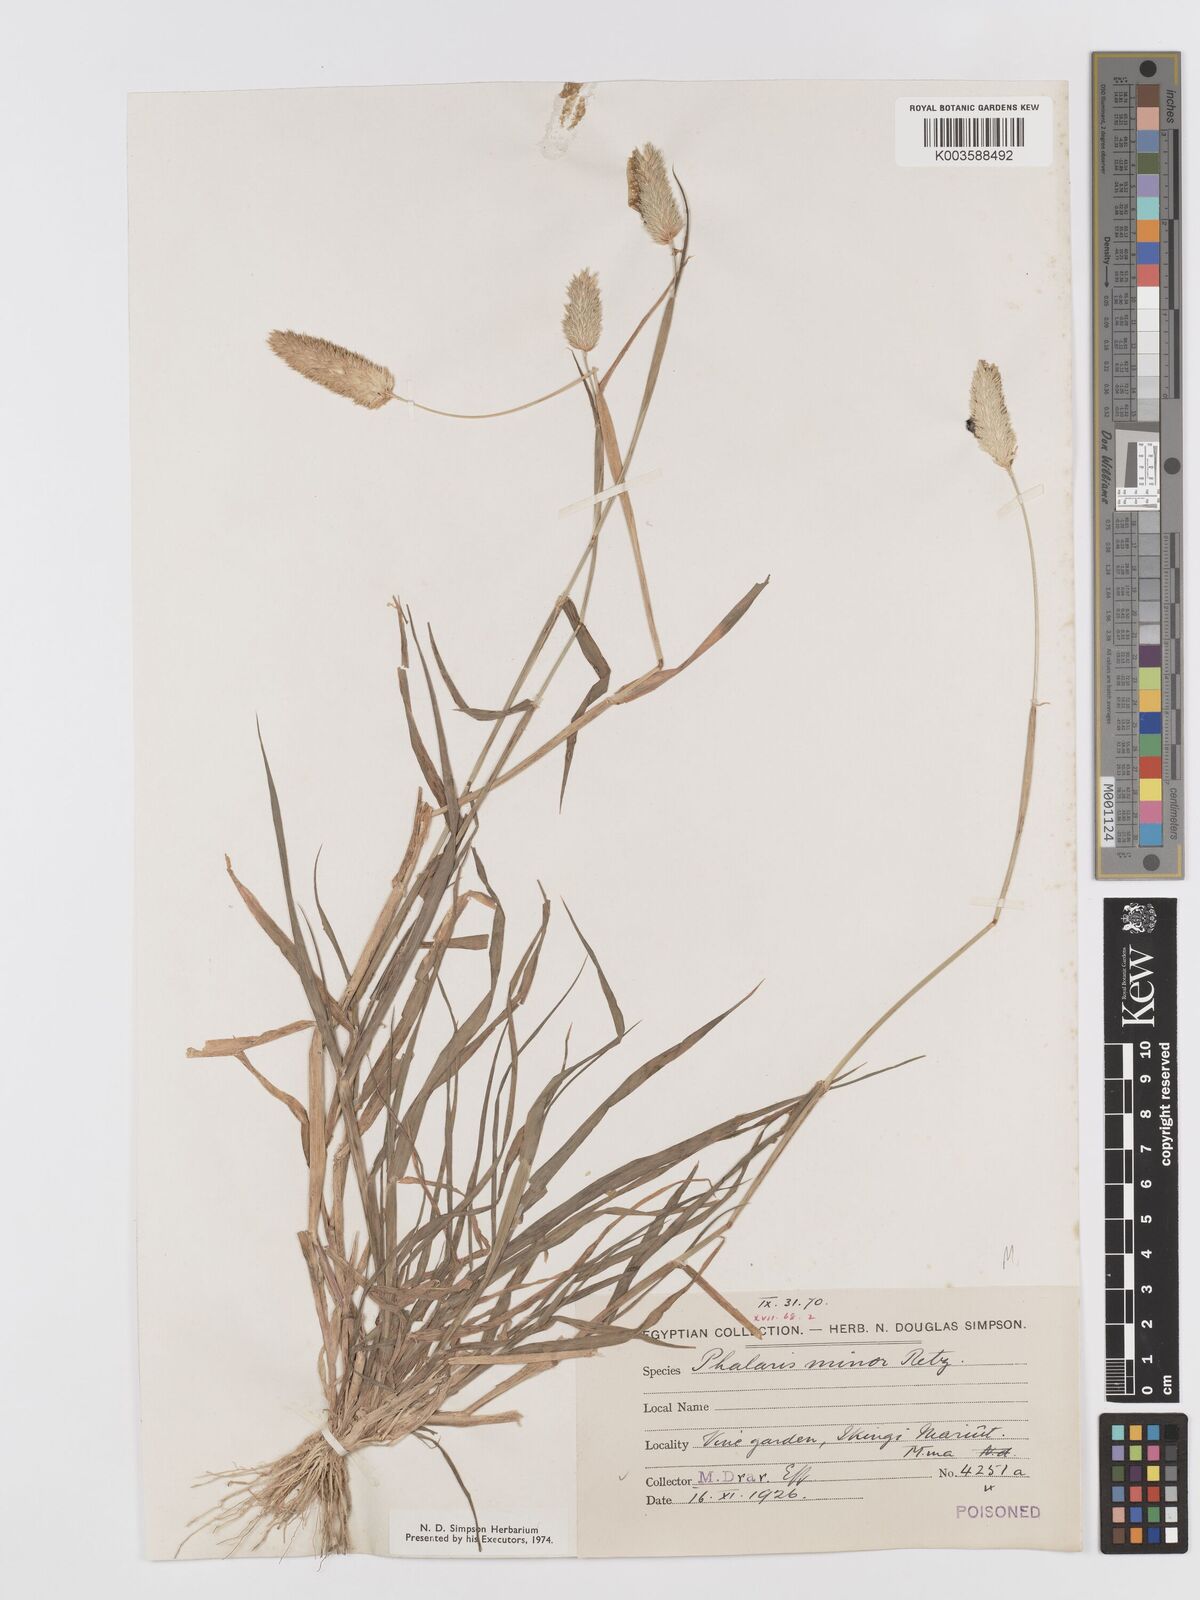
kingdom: Plantae
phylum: Tracheophyta
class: Liliopsida
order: Poales
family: Poaceae
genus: Phalaris
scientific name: Phalaris minor
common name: Littleseed canarygrass
